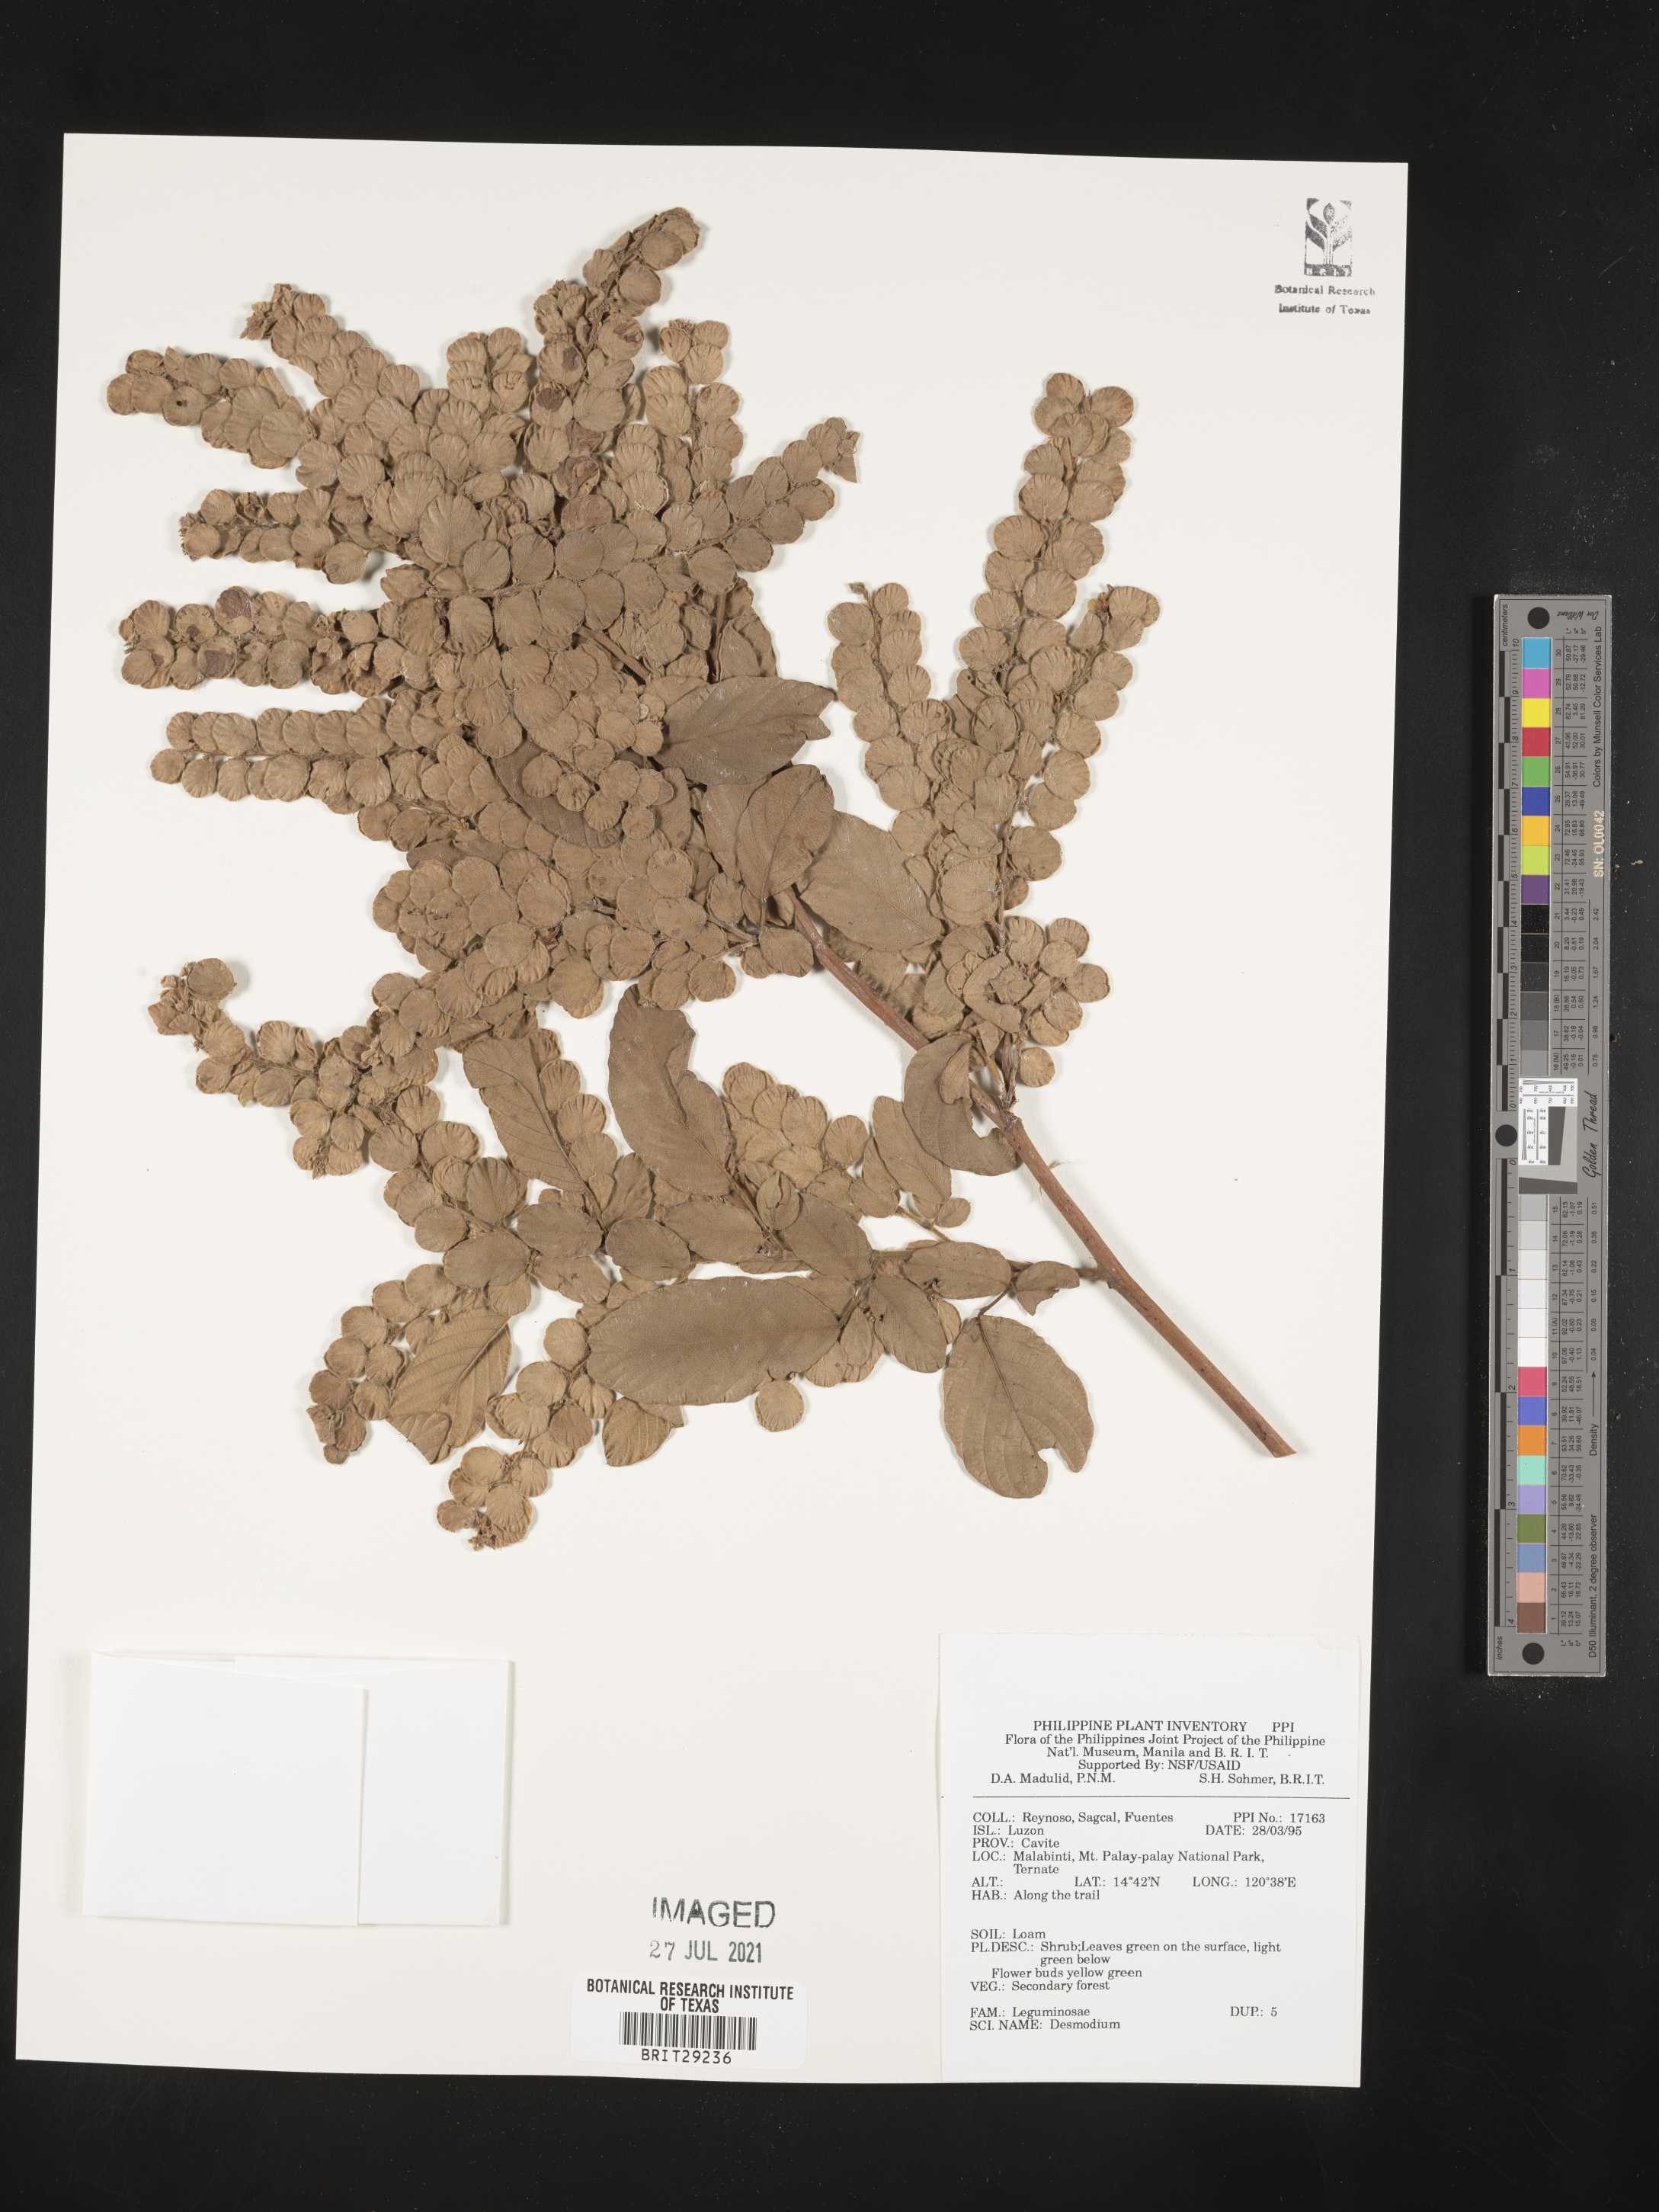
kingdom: Plantae
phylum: Tracheophyta
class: Magnoliopsida
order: Fabales
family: Fabaceae
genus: Desmodium
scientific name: Desmodium
